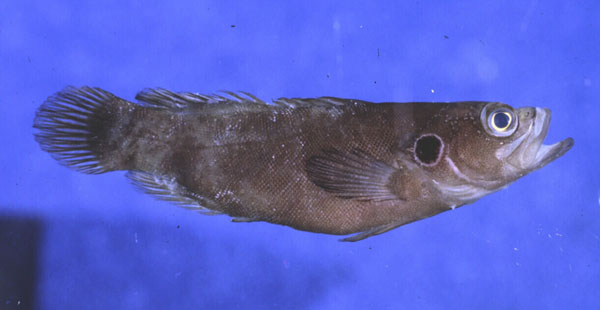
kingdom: Animalia
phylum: Chordata
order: Perciformes
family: Serranidae
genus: Grammistops
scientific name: Grammistops ocellatus
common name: Ocellate soapfish
